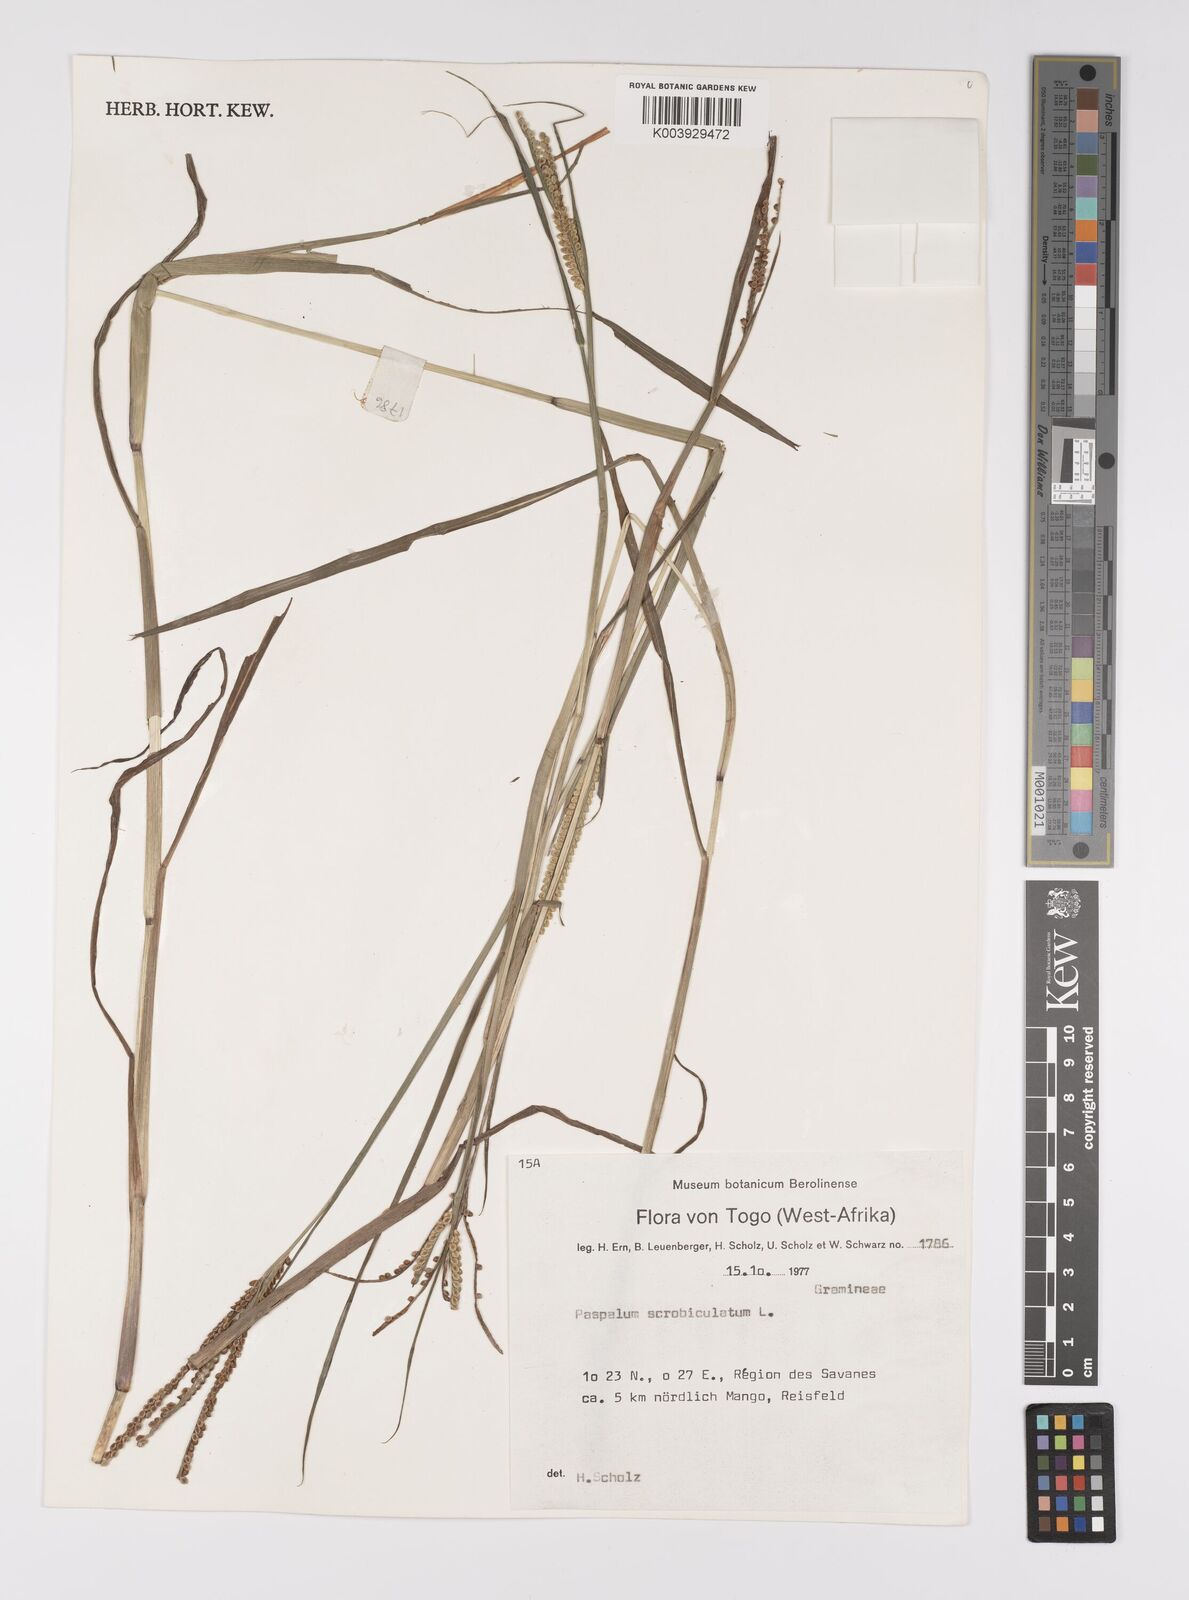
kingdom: Plantae
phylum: Tracheophyta
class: Liliopsida
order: Poales
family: Poaceae
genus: Paspalum
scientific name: Paspalum scrobiculatum
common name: Kodo millet
